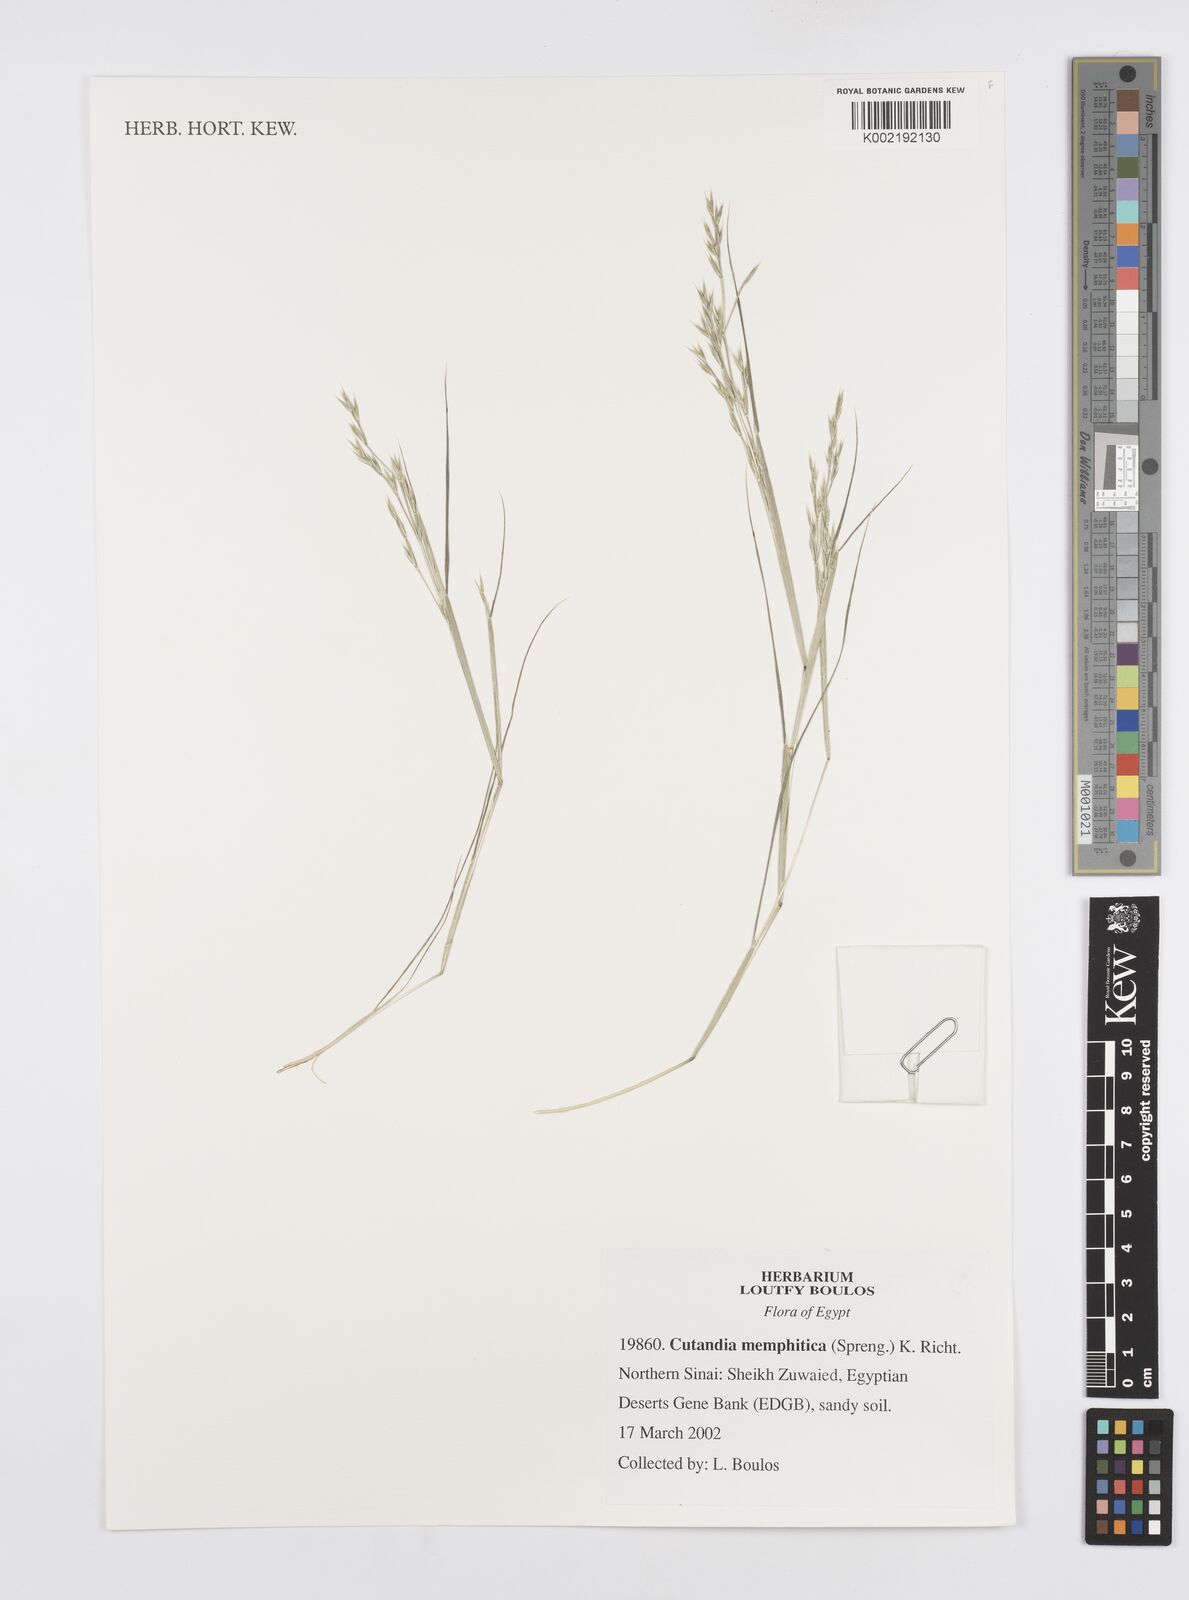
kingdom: Plantae
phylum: Tracheophyta
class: Liliopsida
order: Poales
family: Poaceae
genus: Cutandia
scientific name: Cutandia memphitica
